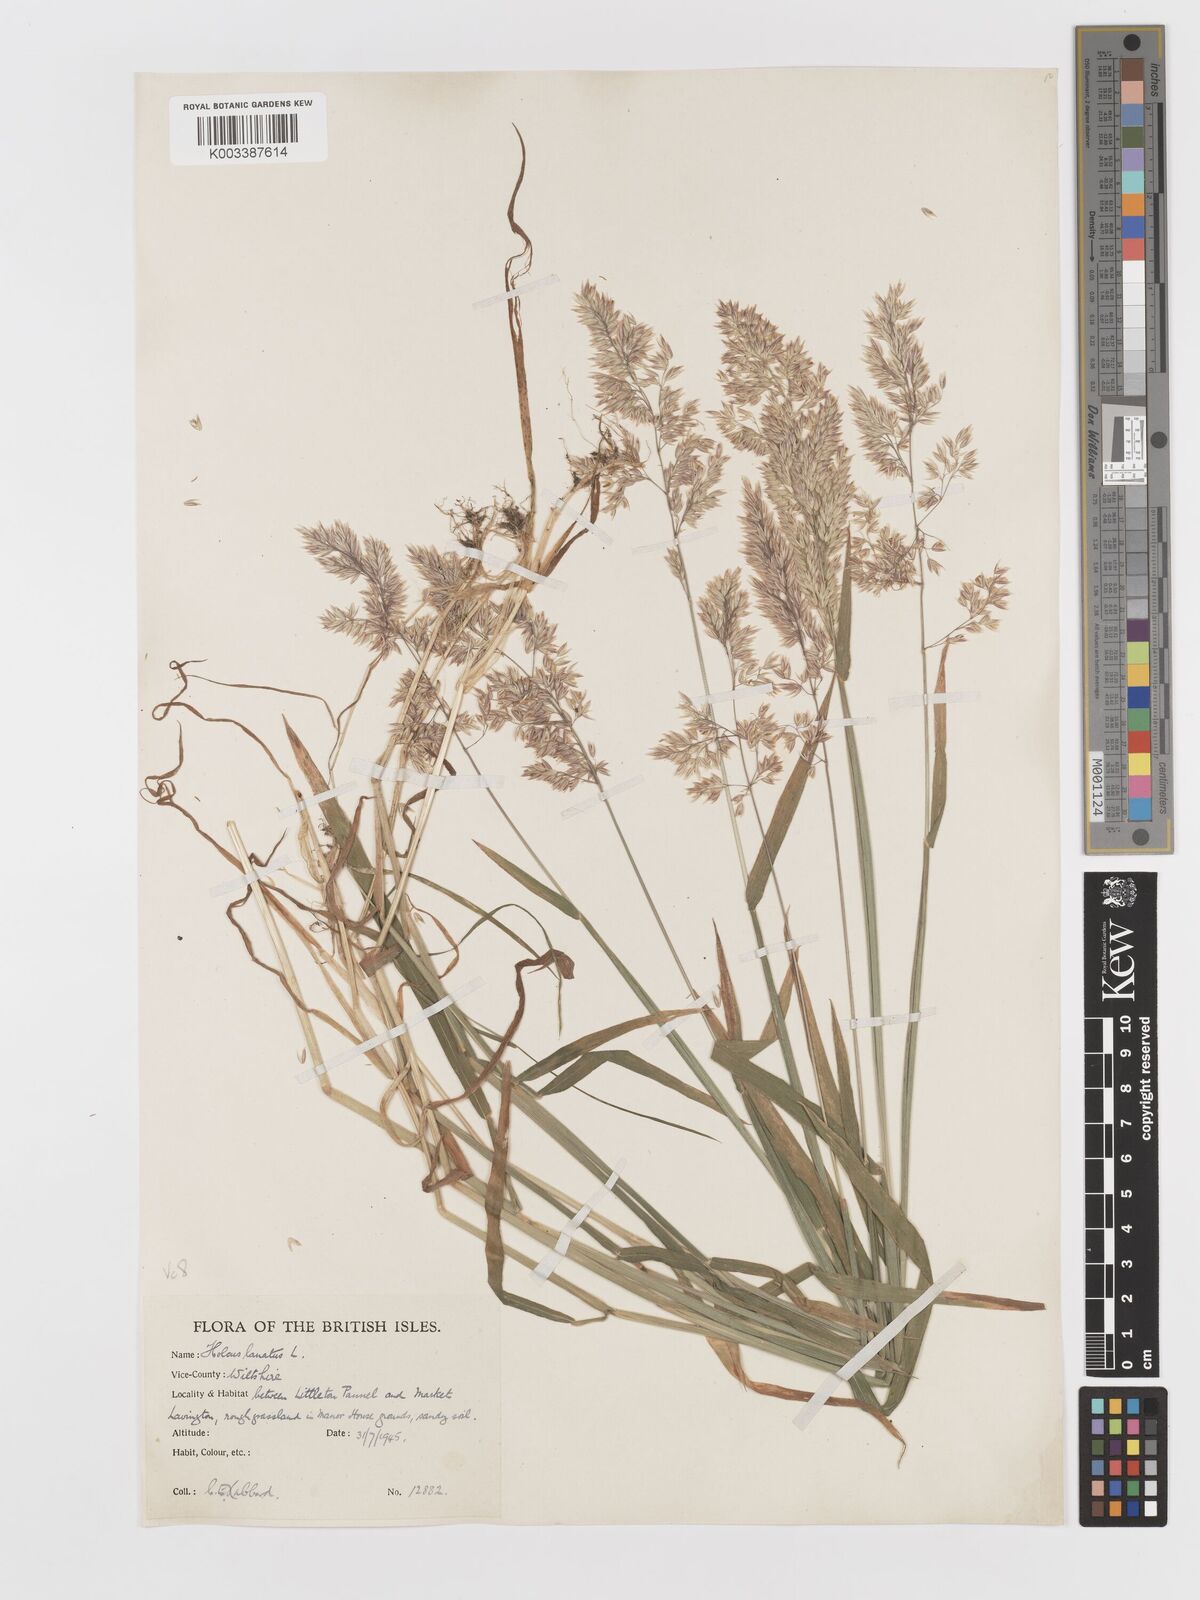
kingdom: Plantae
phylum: Tracheophyta
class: Liliopsida
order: Poales
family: Poaceae
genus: Holcus
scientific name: Holcus lanatus
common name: Yorkshire-fog
